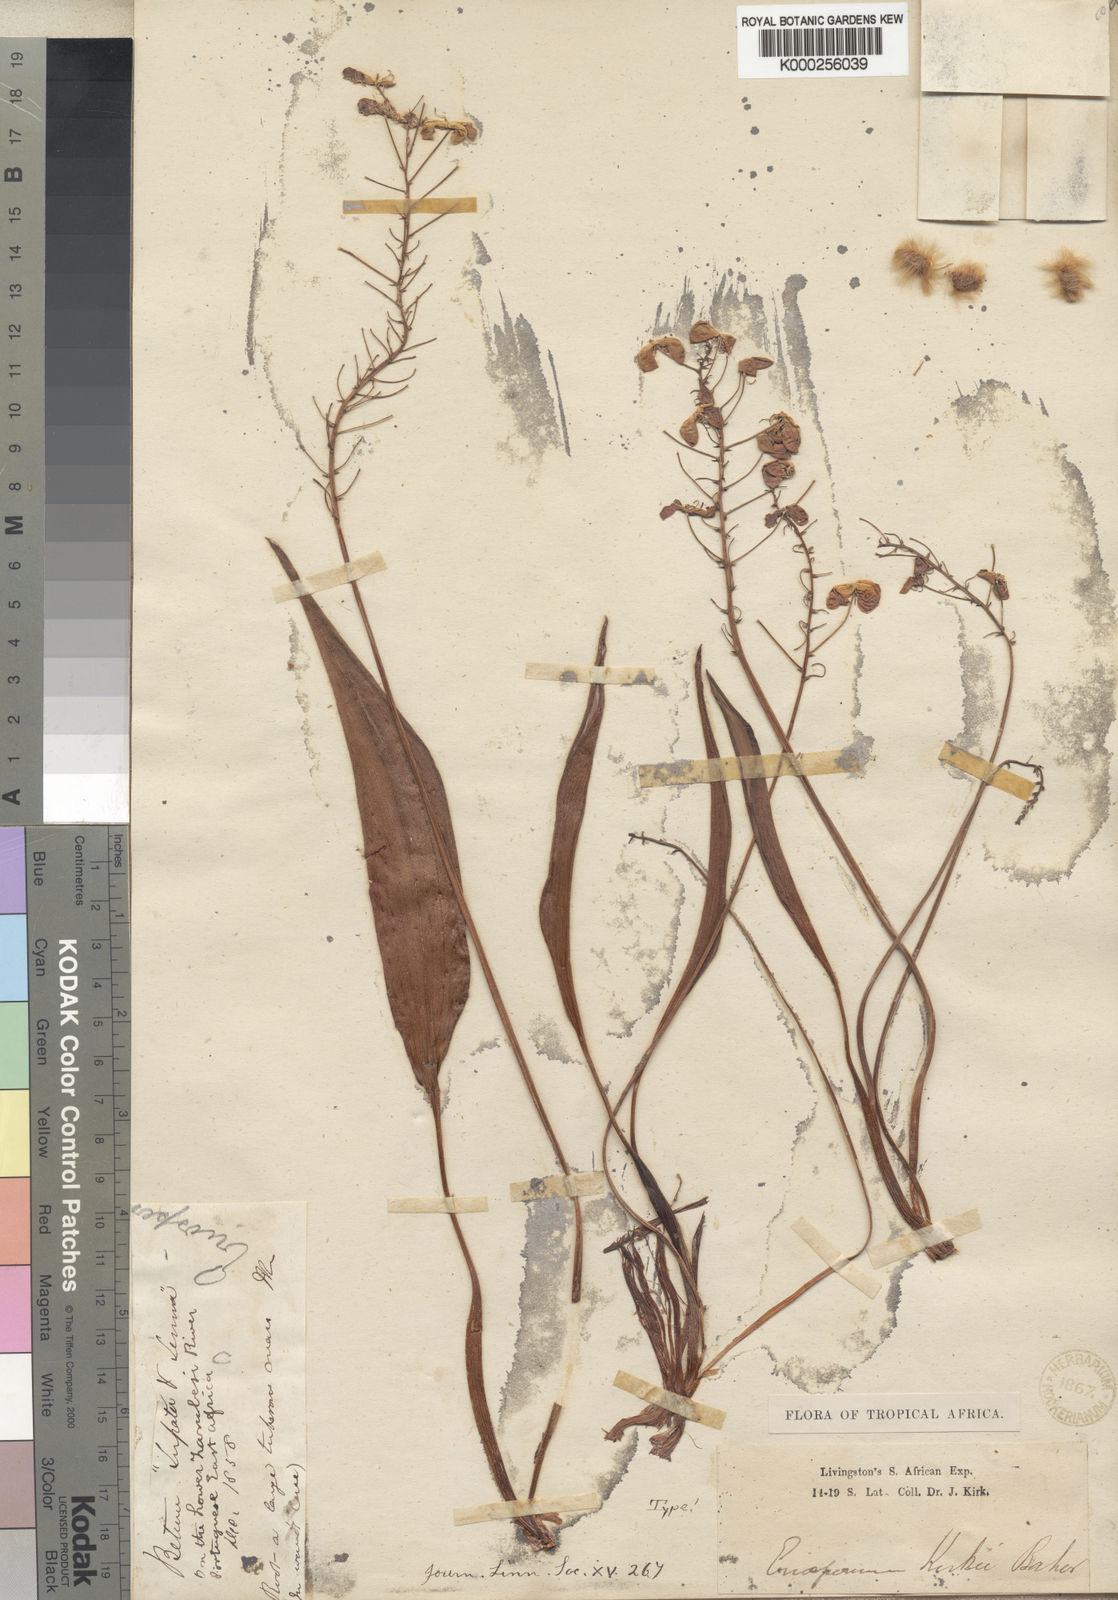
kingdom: Plantae
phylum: Tracheophyta
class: Liliopsida
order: Asparagales
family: Asparagaceae
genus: Eriospermum
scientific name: Eriospermum kirkii
